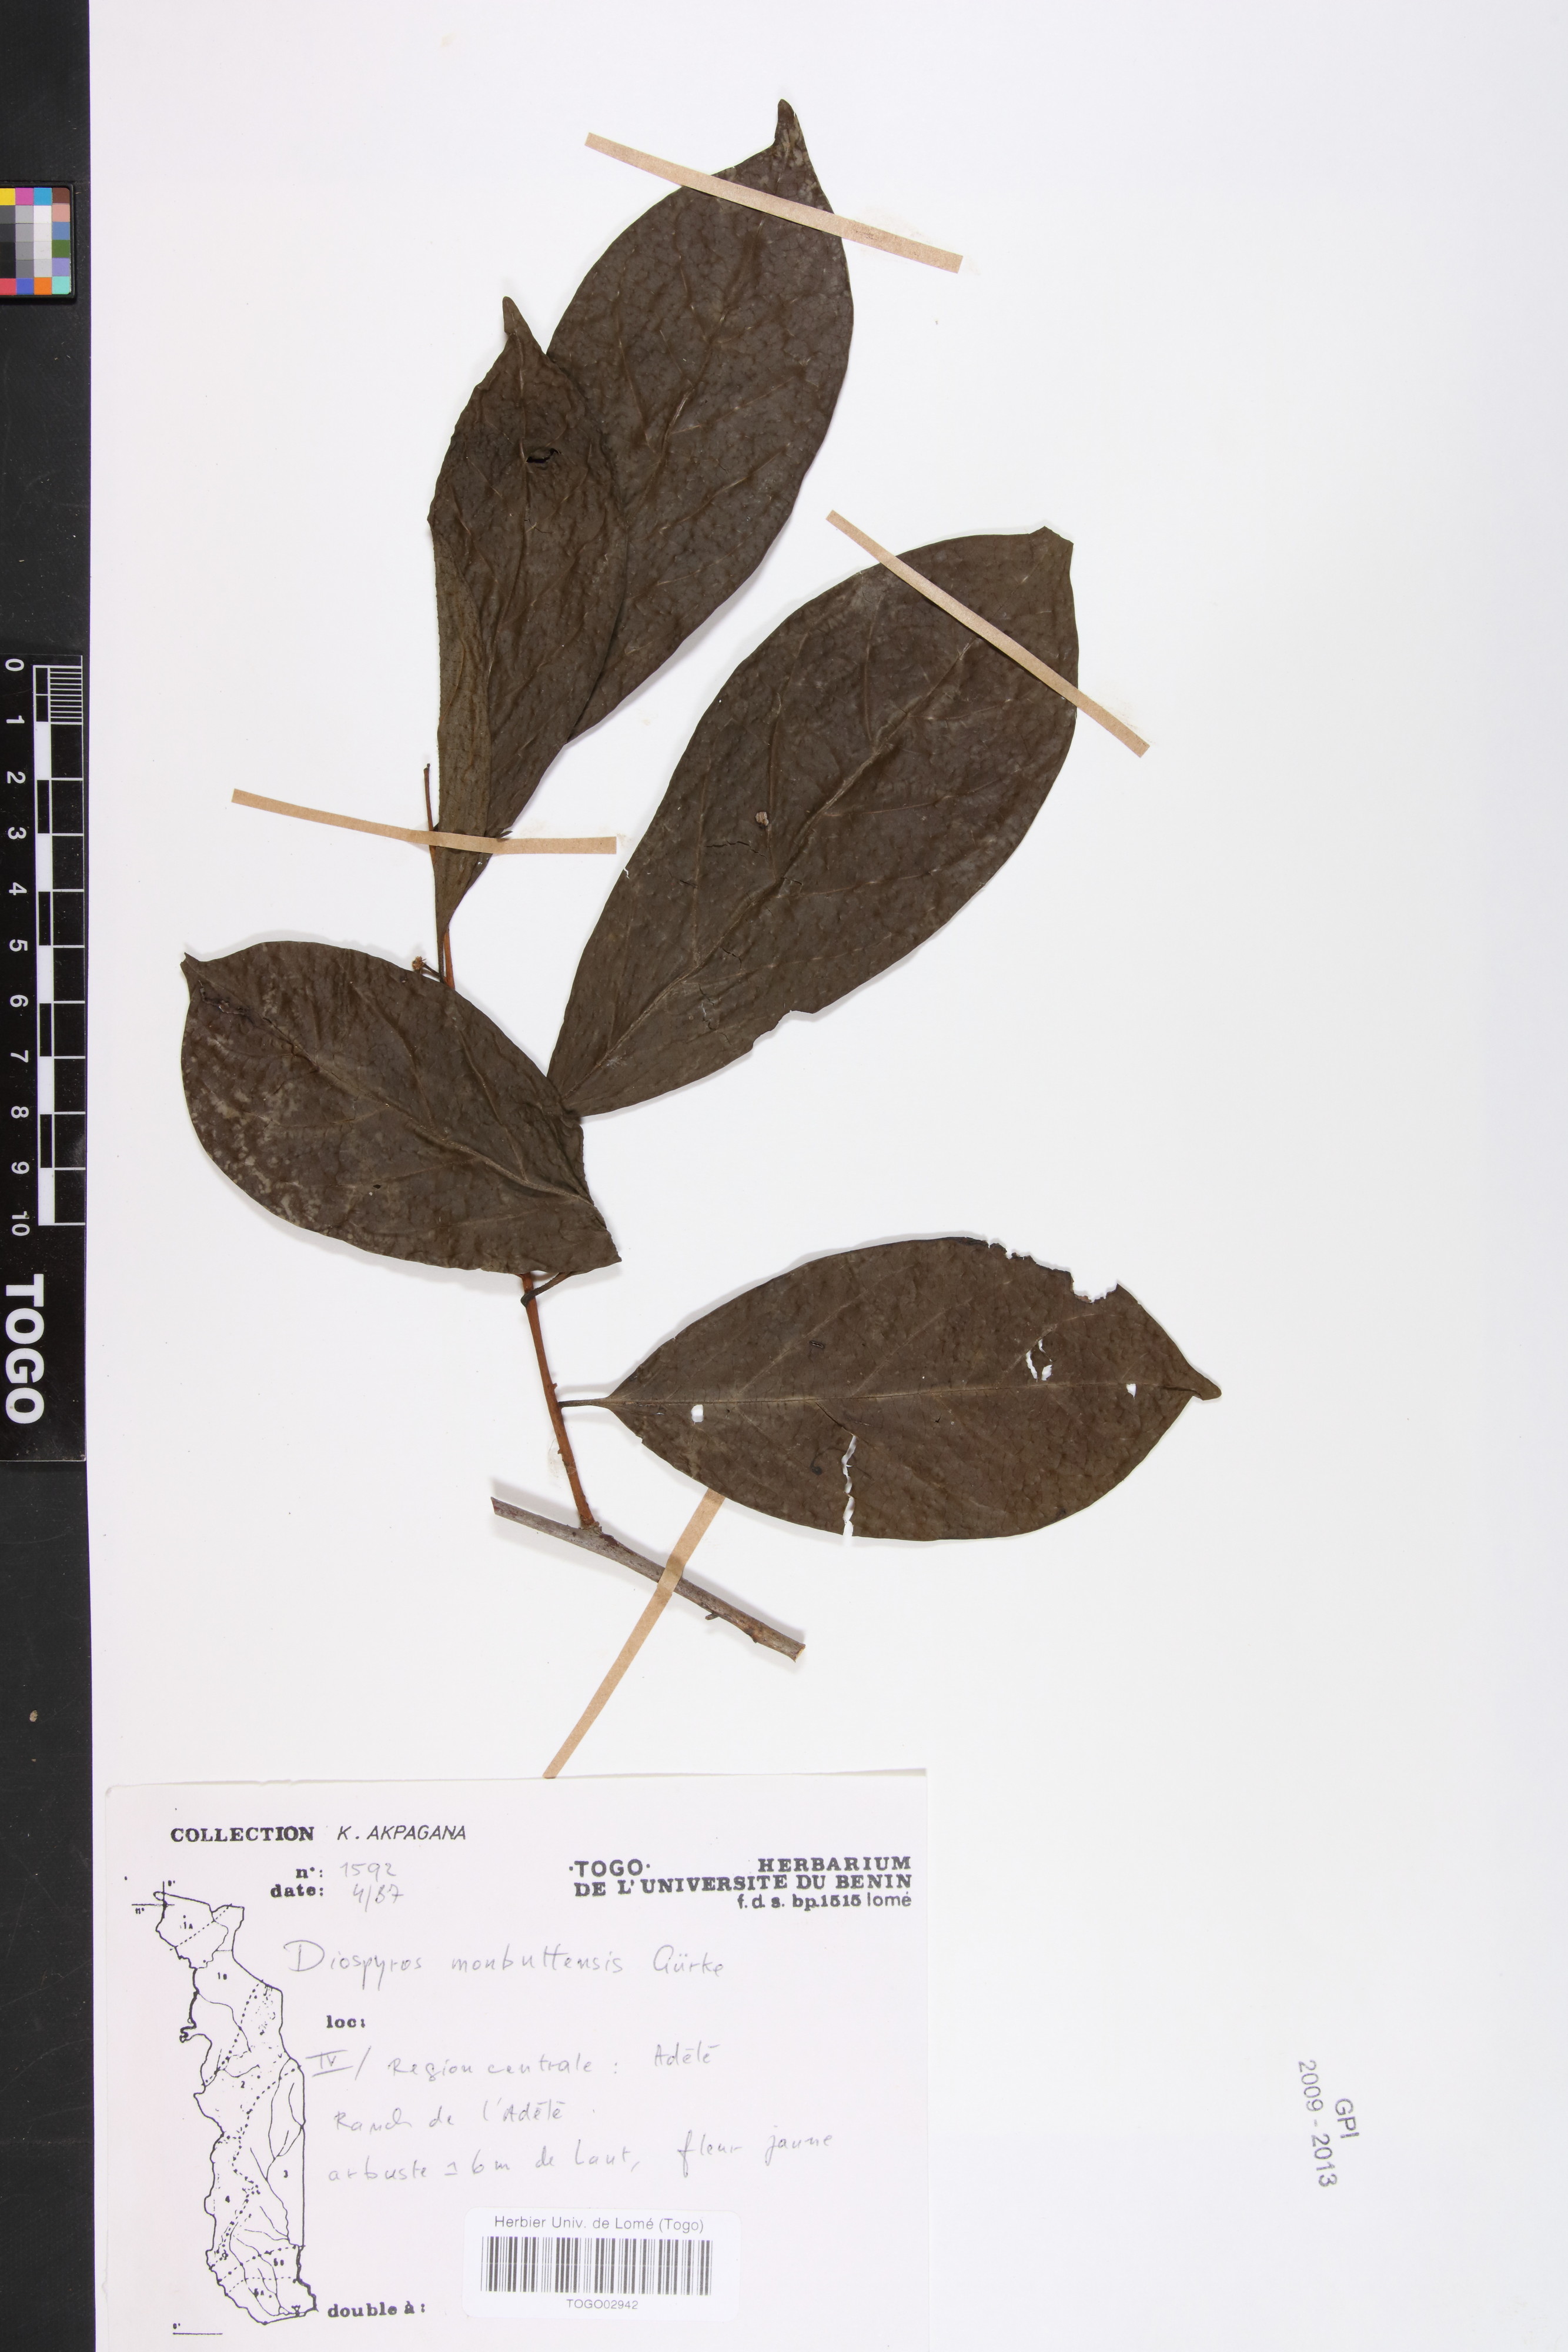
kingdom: Plantae
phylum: Tracheophyta
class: Magnoliopsida
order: Ericales
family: Ebenaceae
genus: Diospyros
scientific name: Diospyros monbuttensis
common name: Walking-stick ebony
